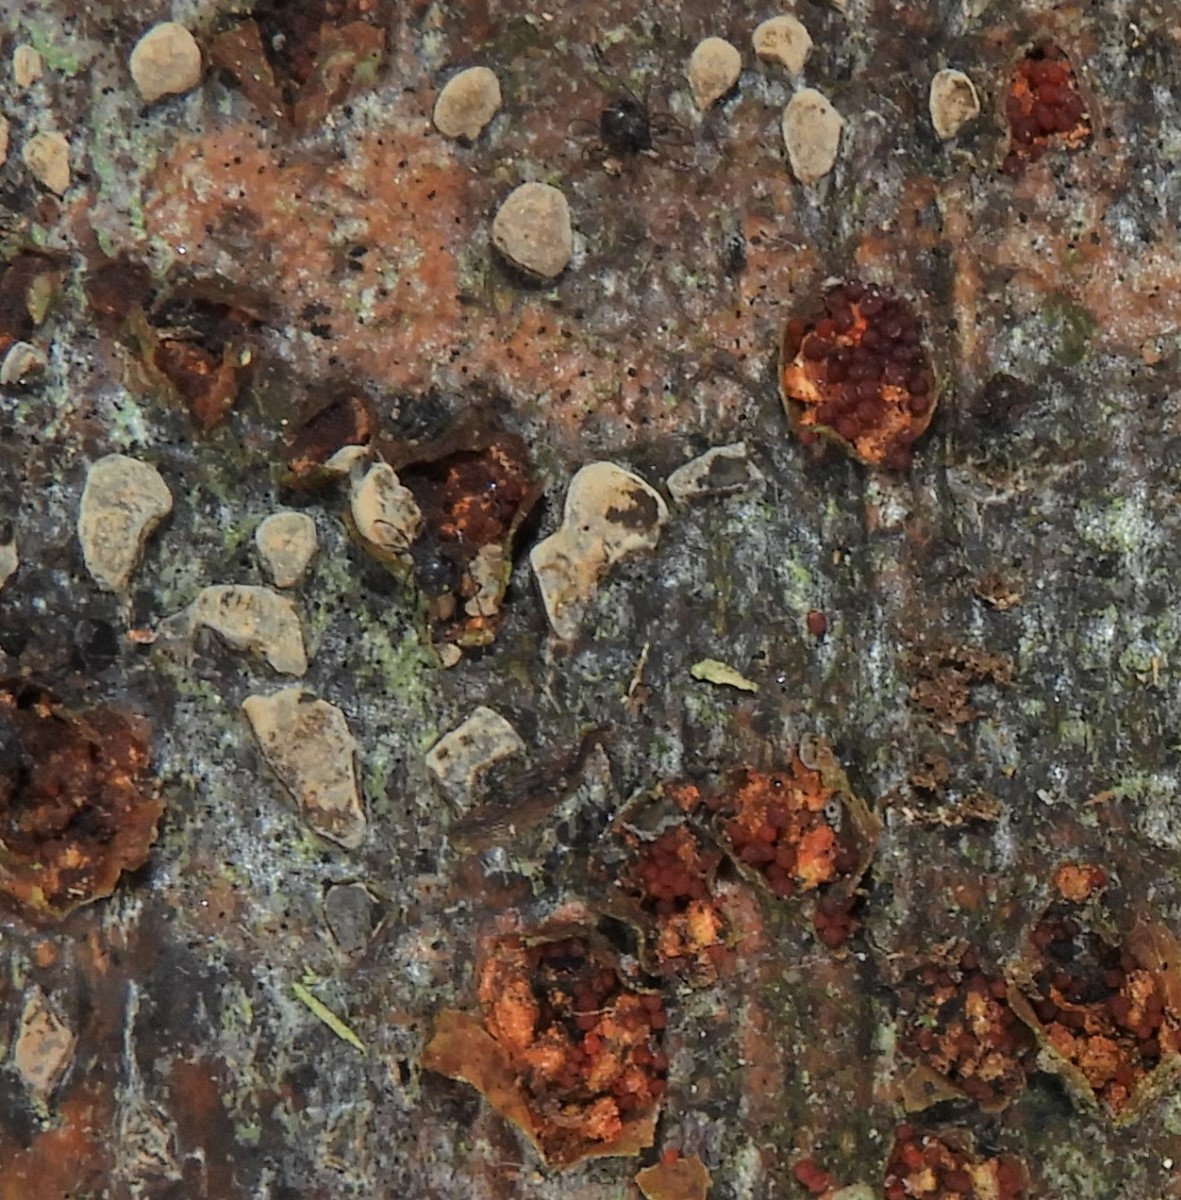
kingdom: Fungi
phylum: Ascomycota
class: Sordariomycetes
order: Xylariales
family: Hypoxylaceae
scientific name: Hypoxylaceae
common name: kulbærfamilien
